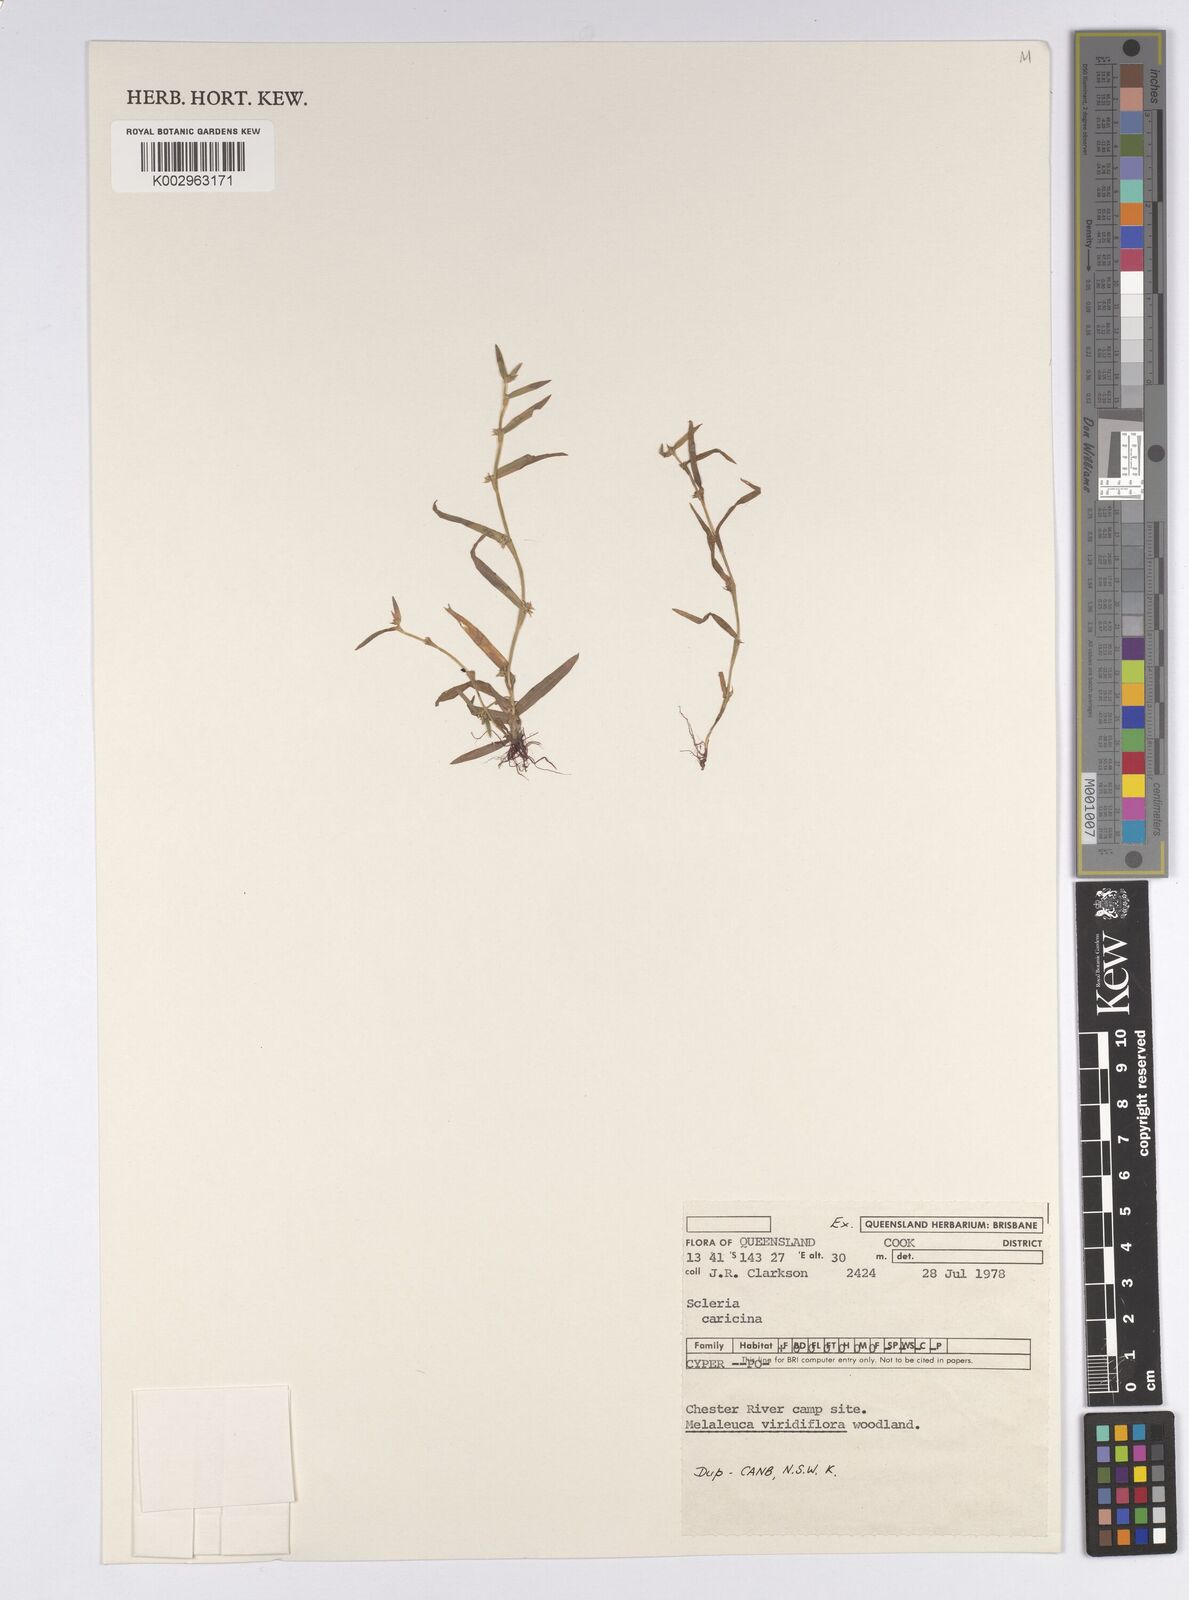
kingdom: Plantae
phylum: Tracheophyta
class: Liliopsida
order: Poales
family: Cyperaceae
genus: Diplacrum
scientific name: Diplacrum caricinum
